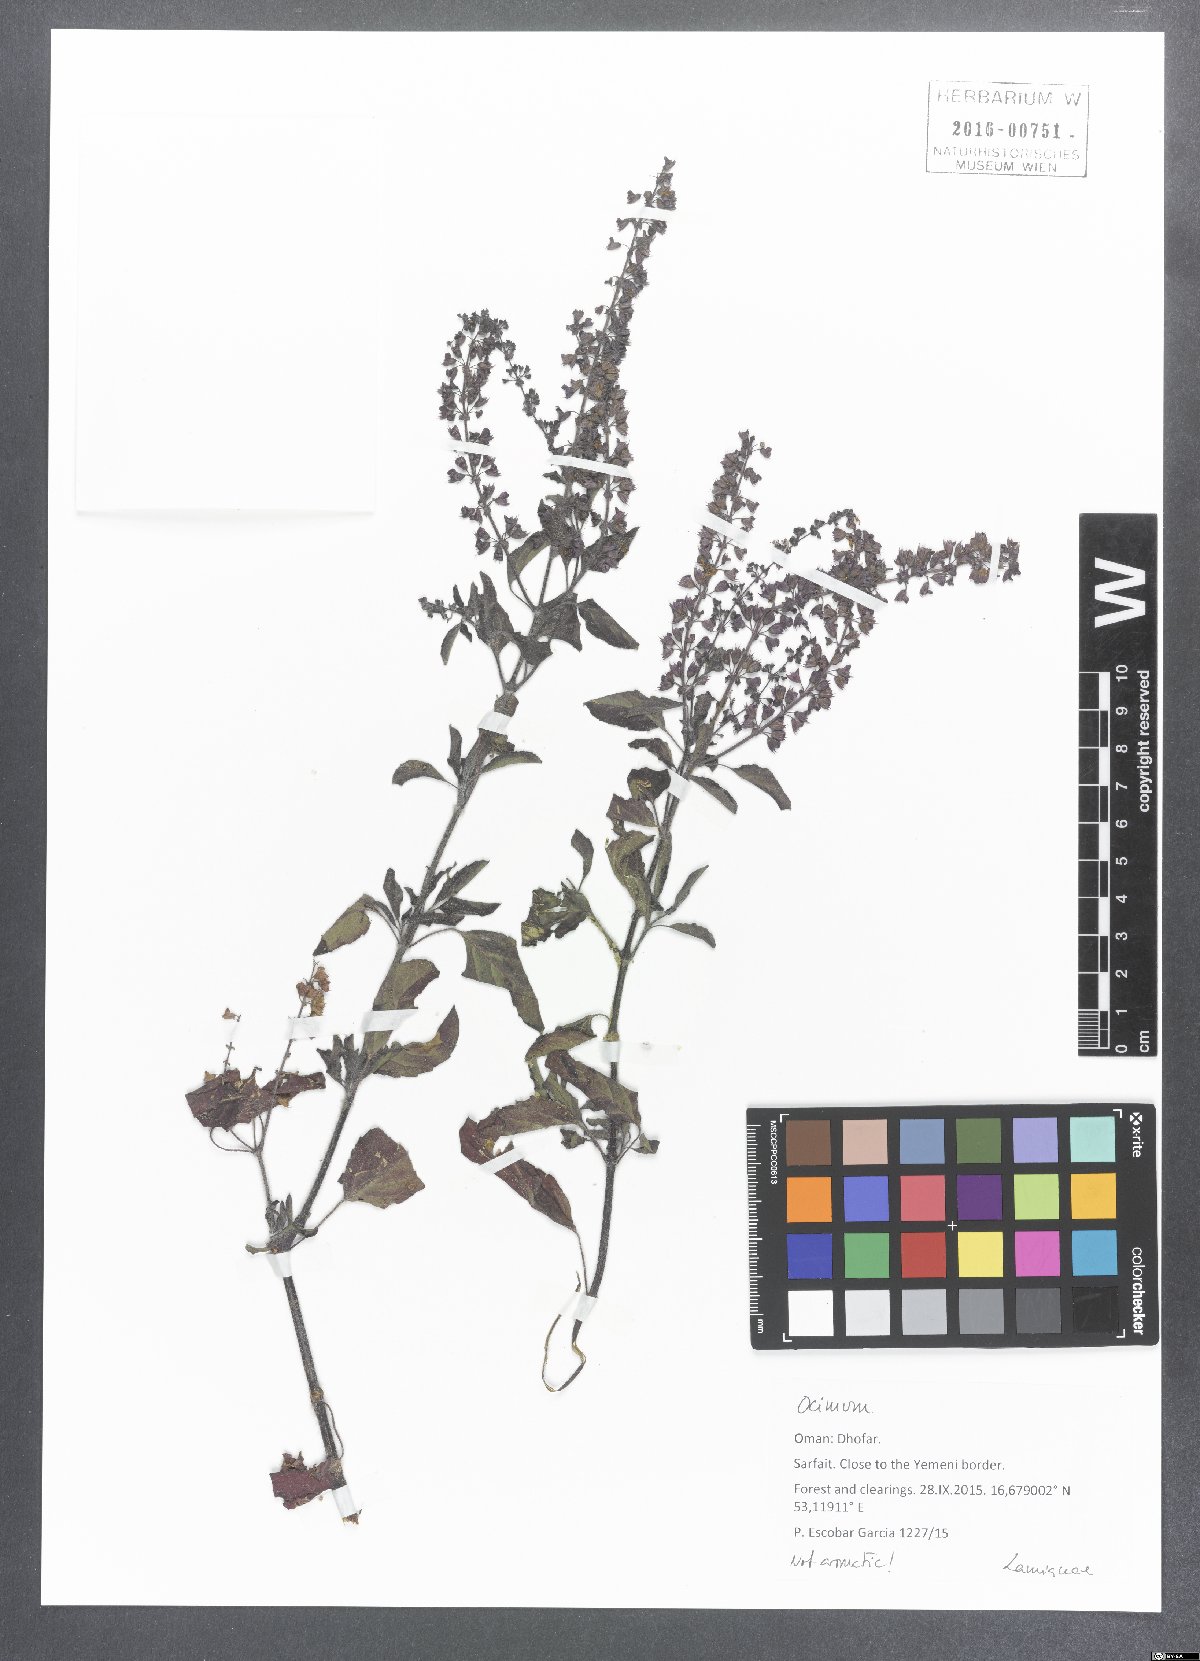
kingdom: Plantae
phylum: Tracheophyta
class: Magnoliopsida
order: Lamiales
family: Lamiaceae
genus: Ocimum
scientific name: Ocimum
